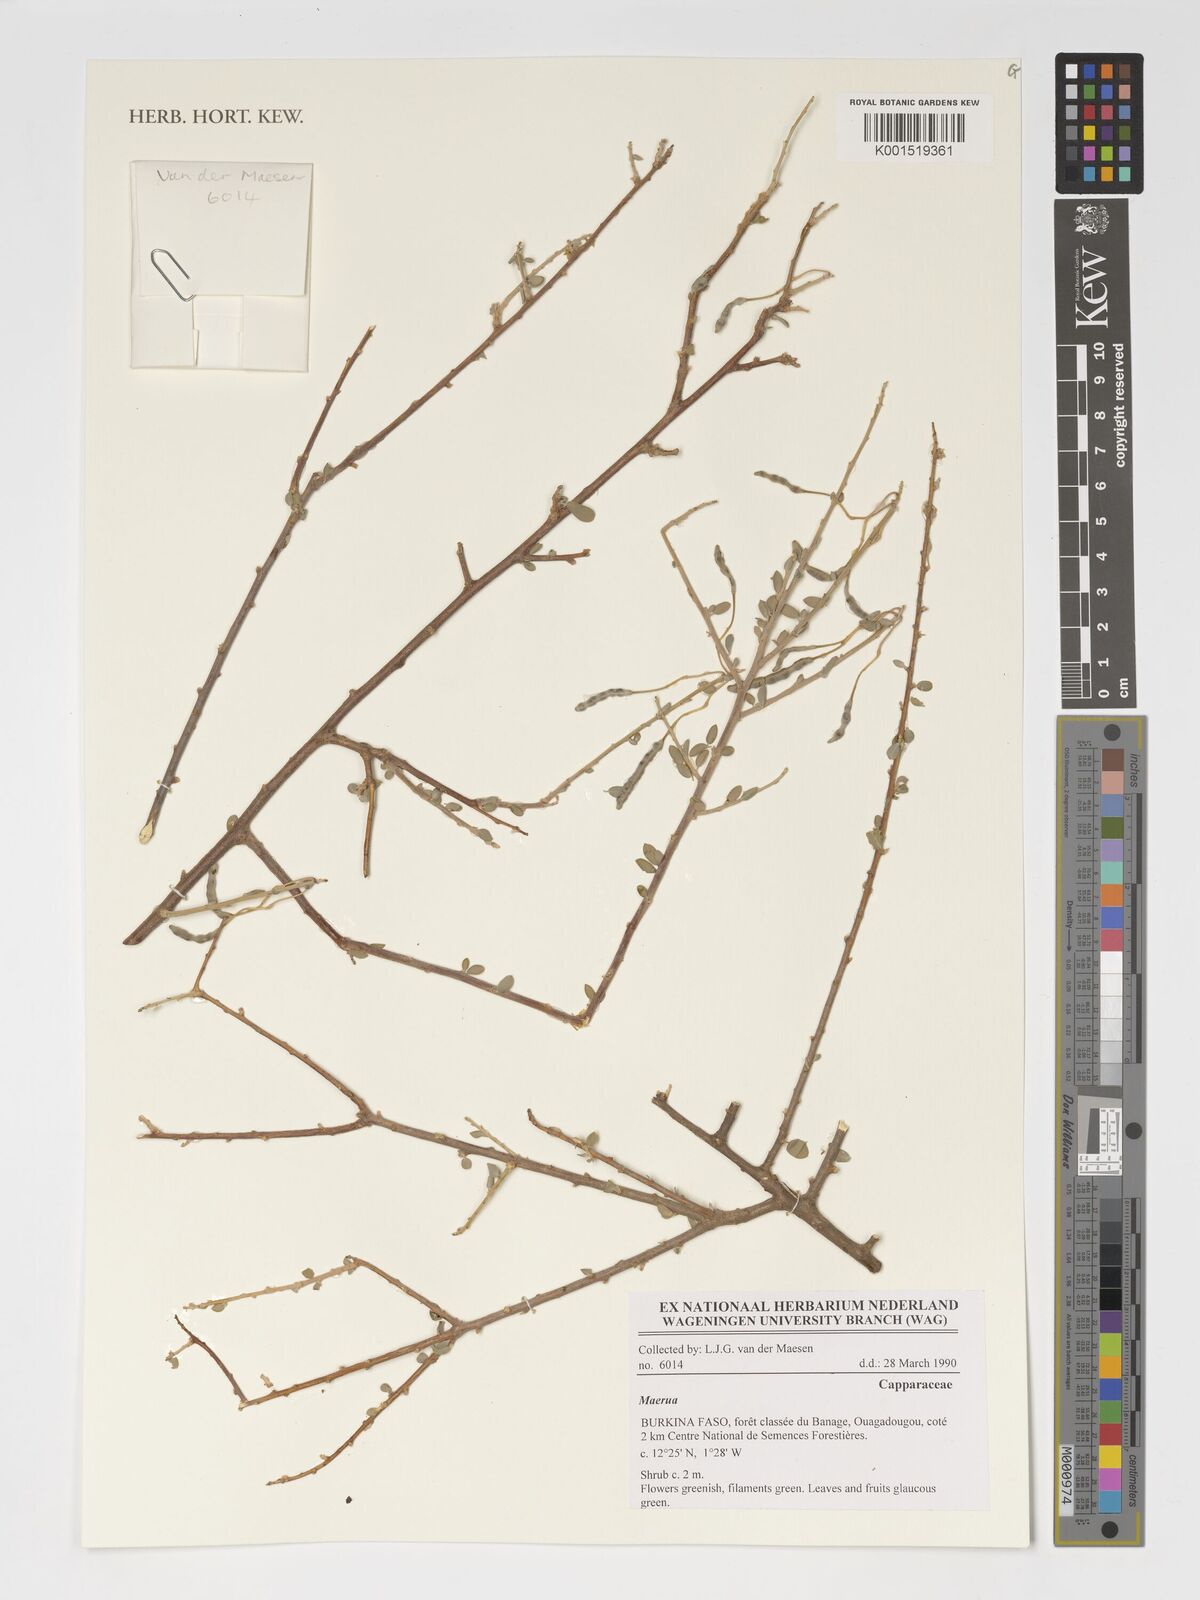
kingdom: Plantae
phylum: Tracheophyta
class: Magnoliopsida
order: Brassicales
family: Capparaceae
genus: Maerua
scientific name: Maerua
